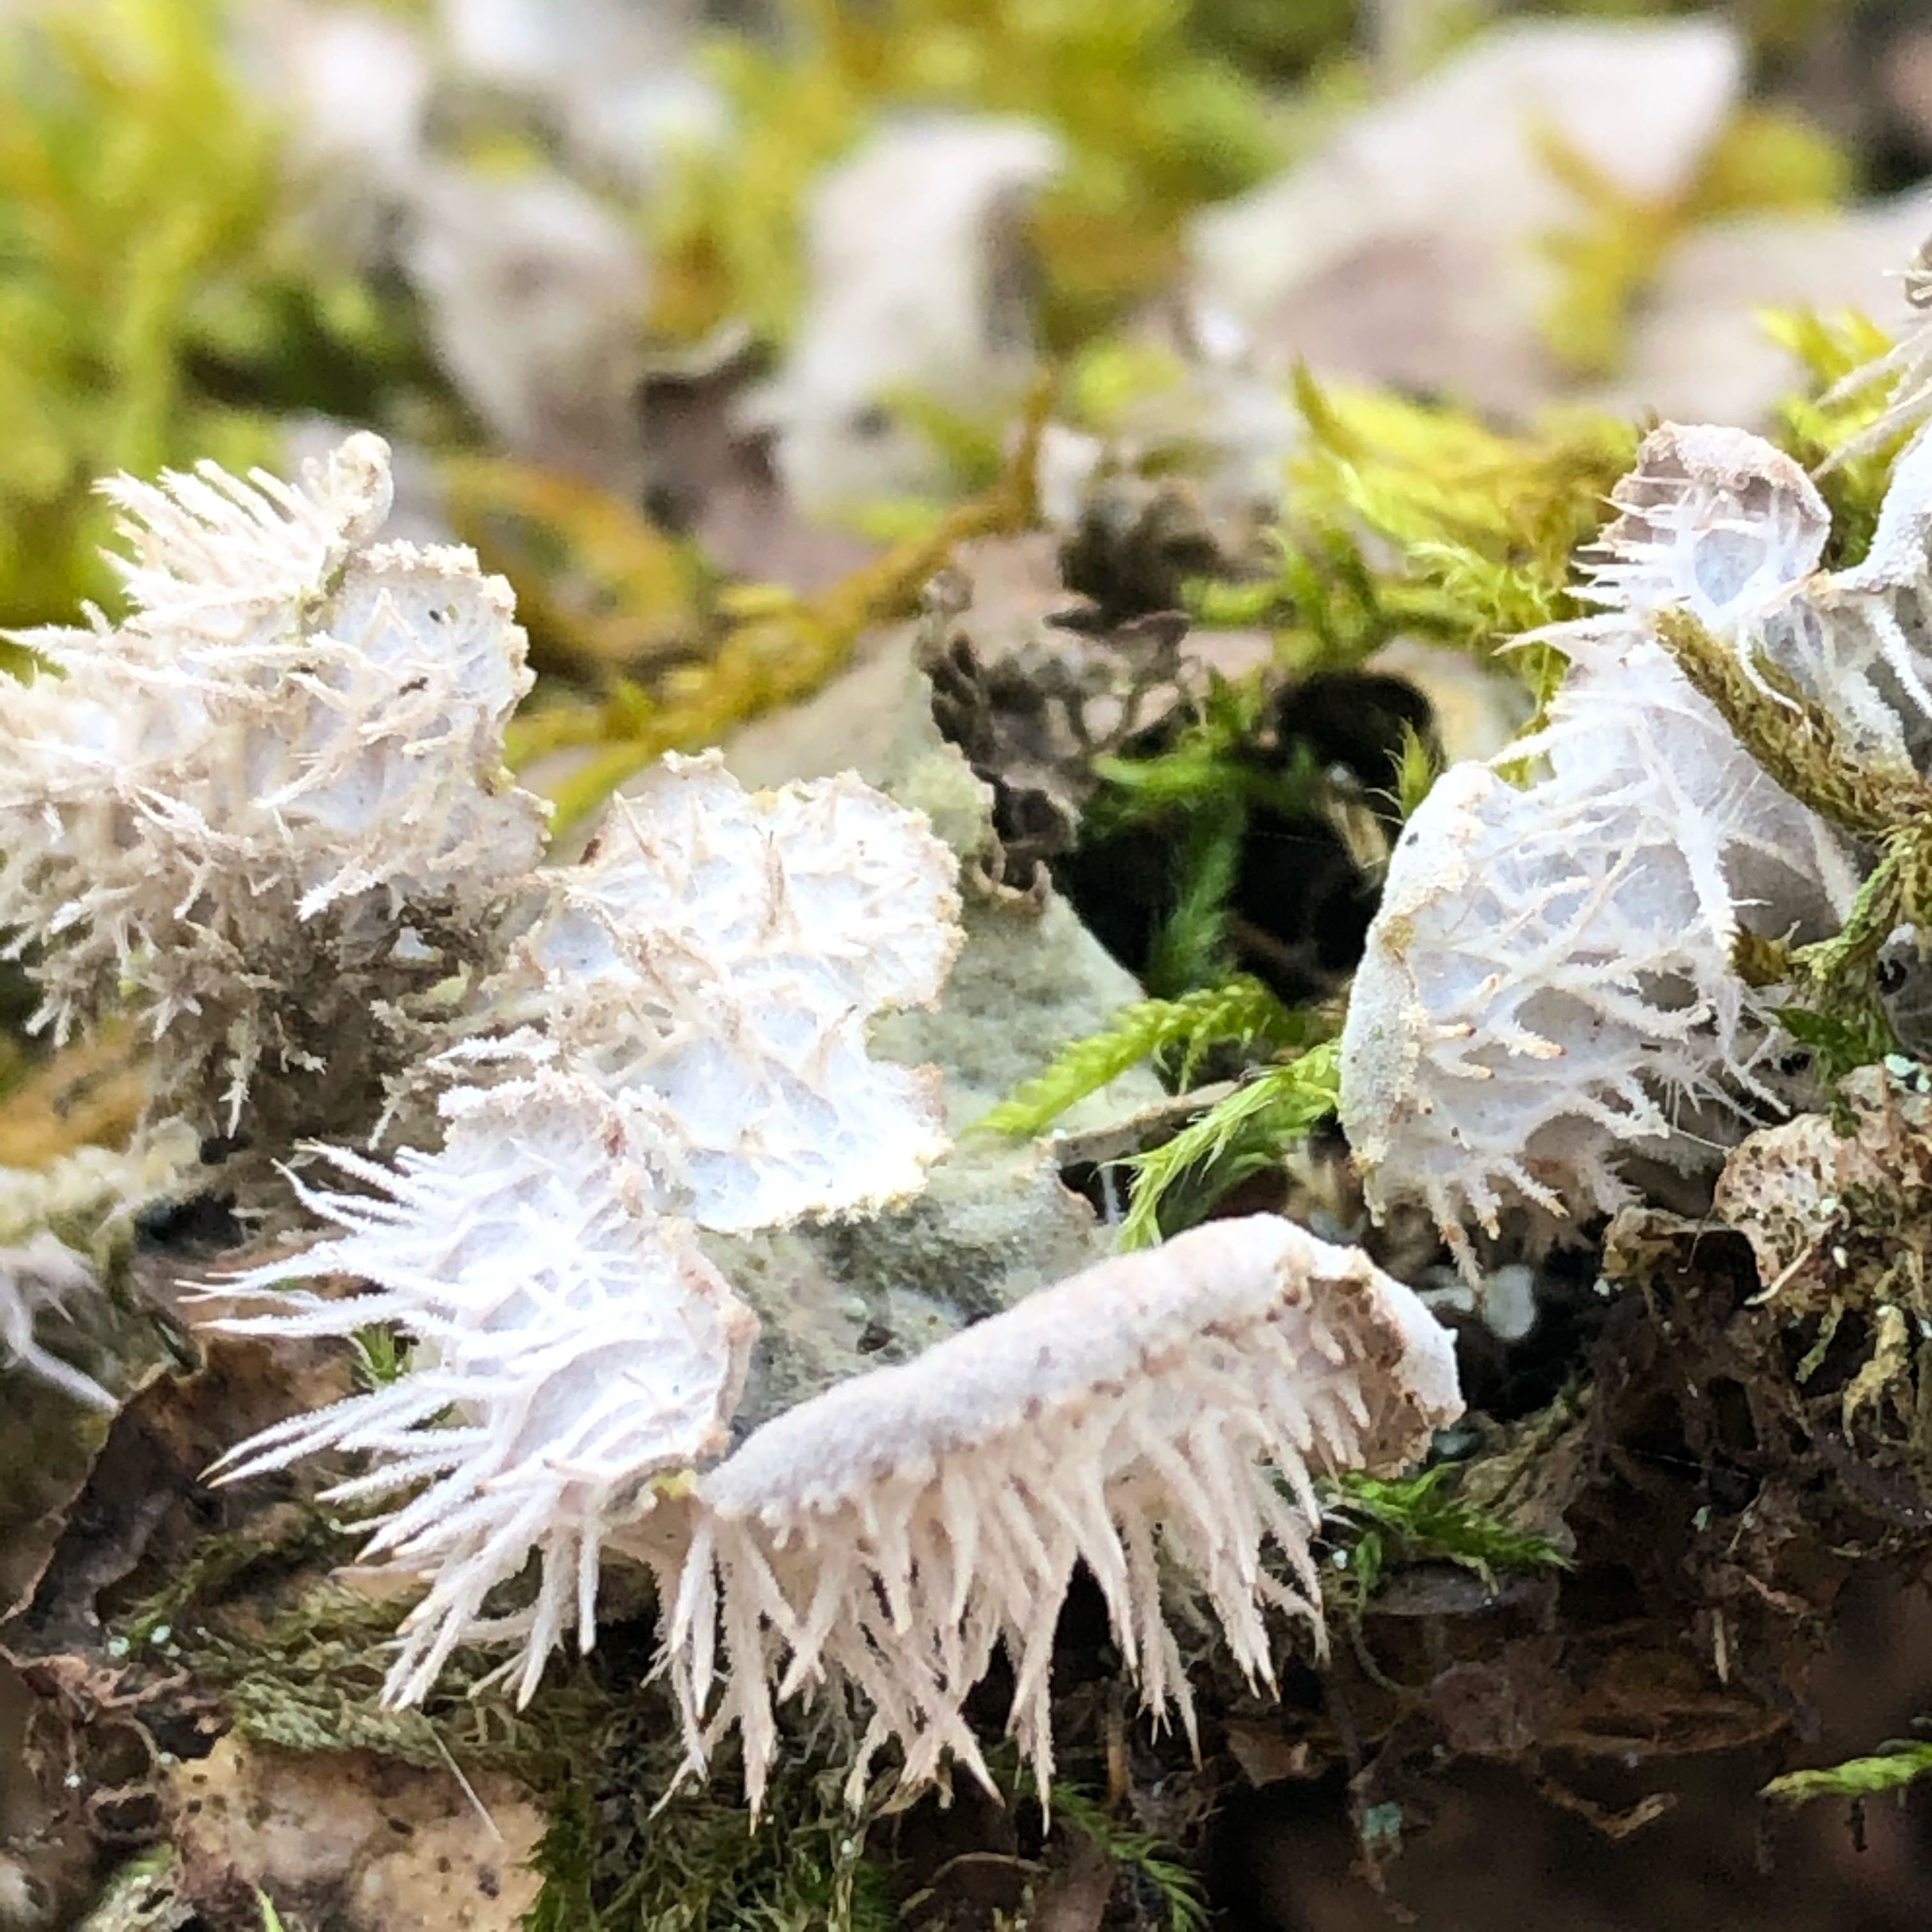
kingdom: Fungi
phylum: Ascomycota
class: Lecanoromycetes
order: Peltigerales
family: Peltigeraceae
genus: Peltigera
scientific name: Peltigera membranacea
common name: tynd skjoldlav
